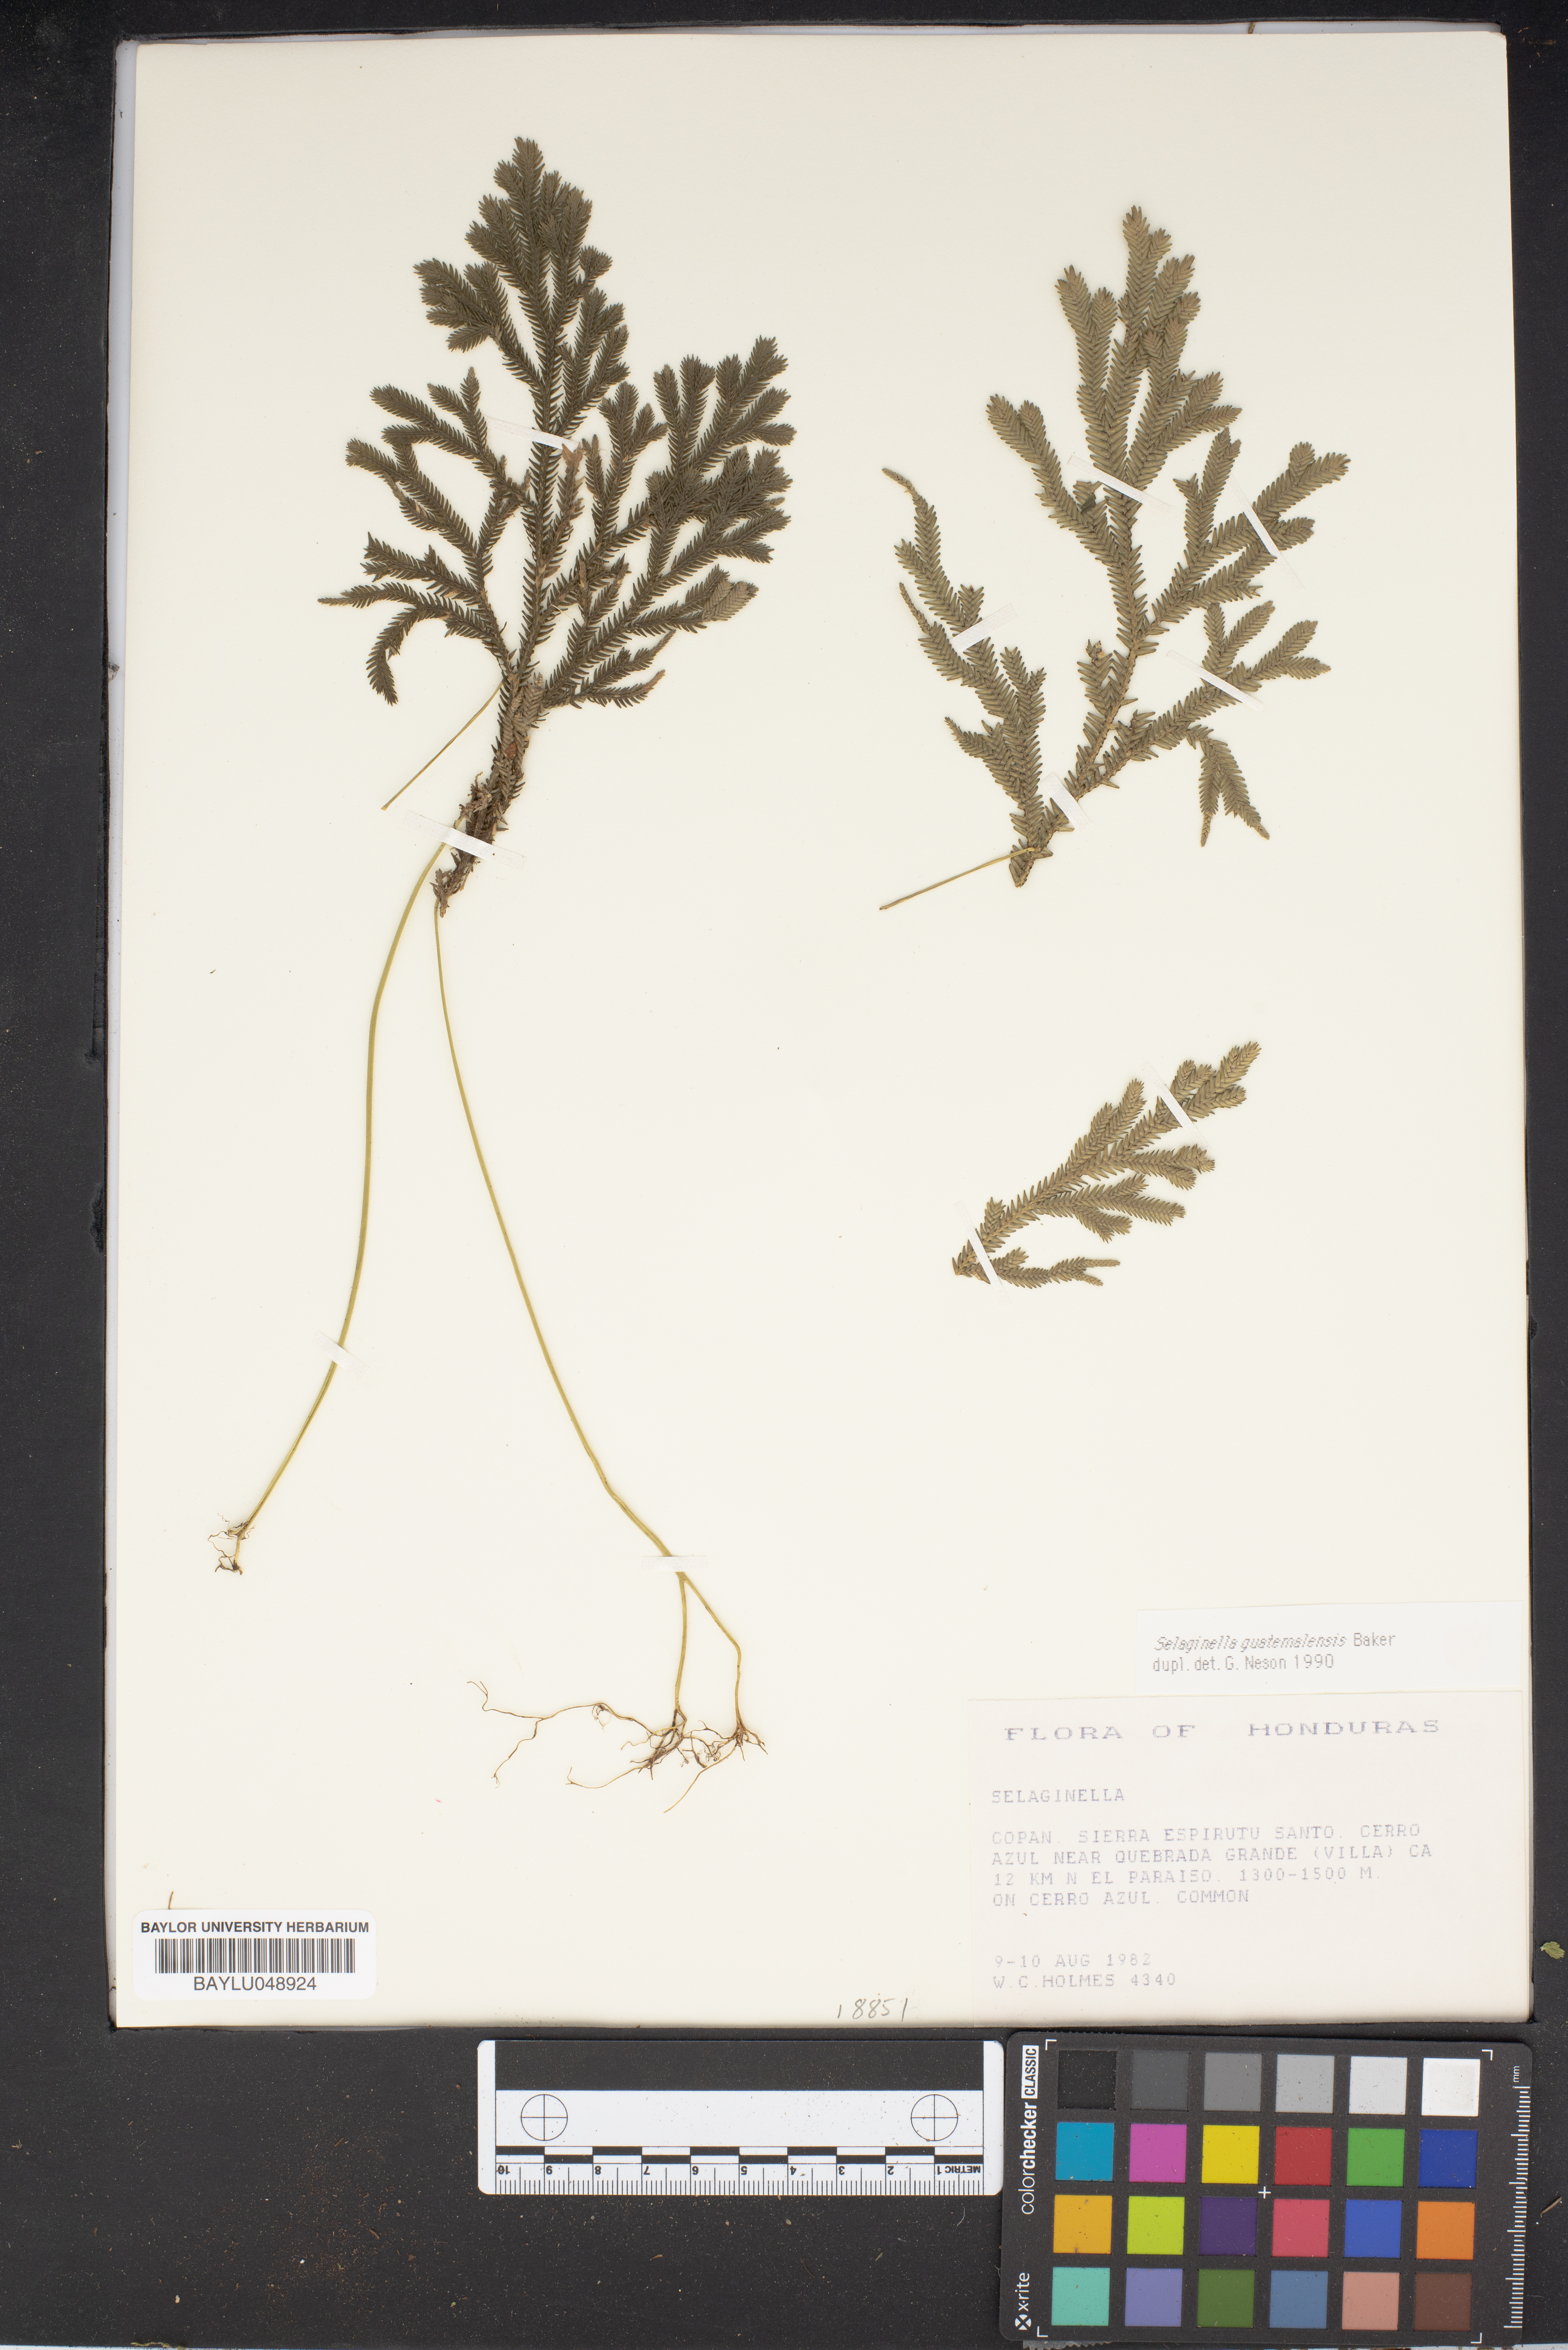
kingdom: Plantae
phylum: Tracheophyta
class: Lycopodiopsida
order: Selaginellales
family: Selaginellaceae
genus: Selaginella
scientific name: Selaginella
